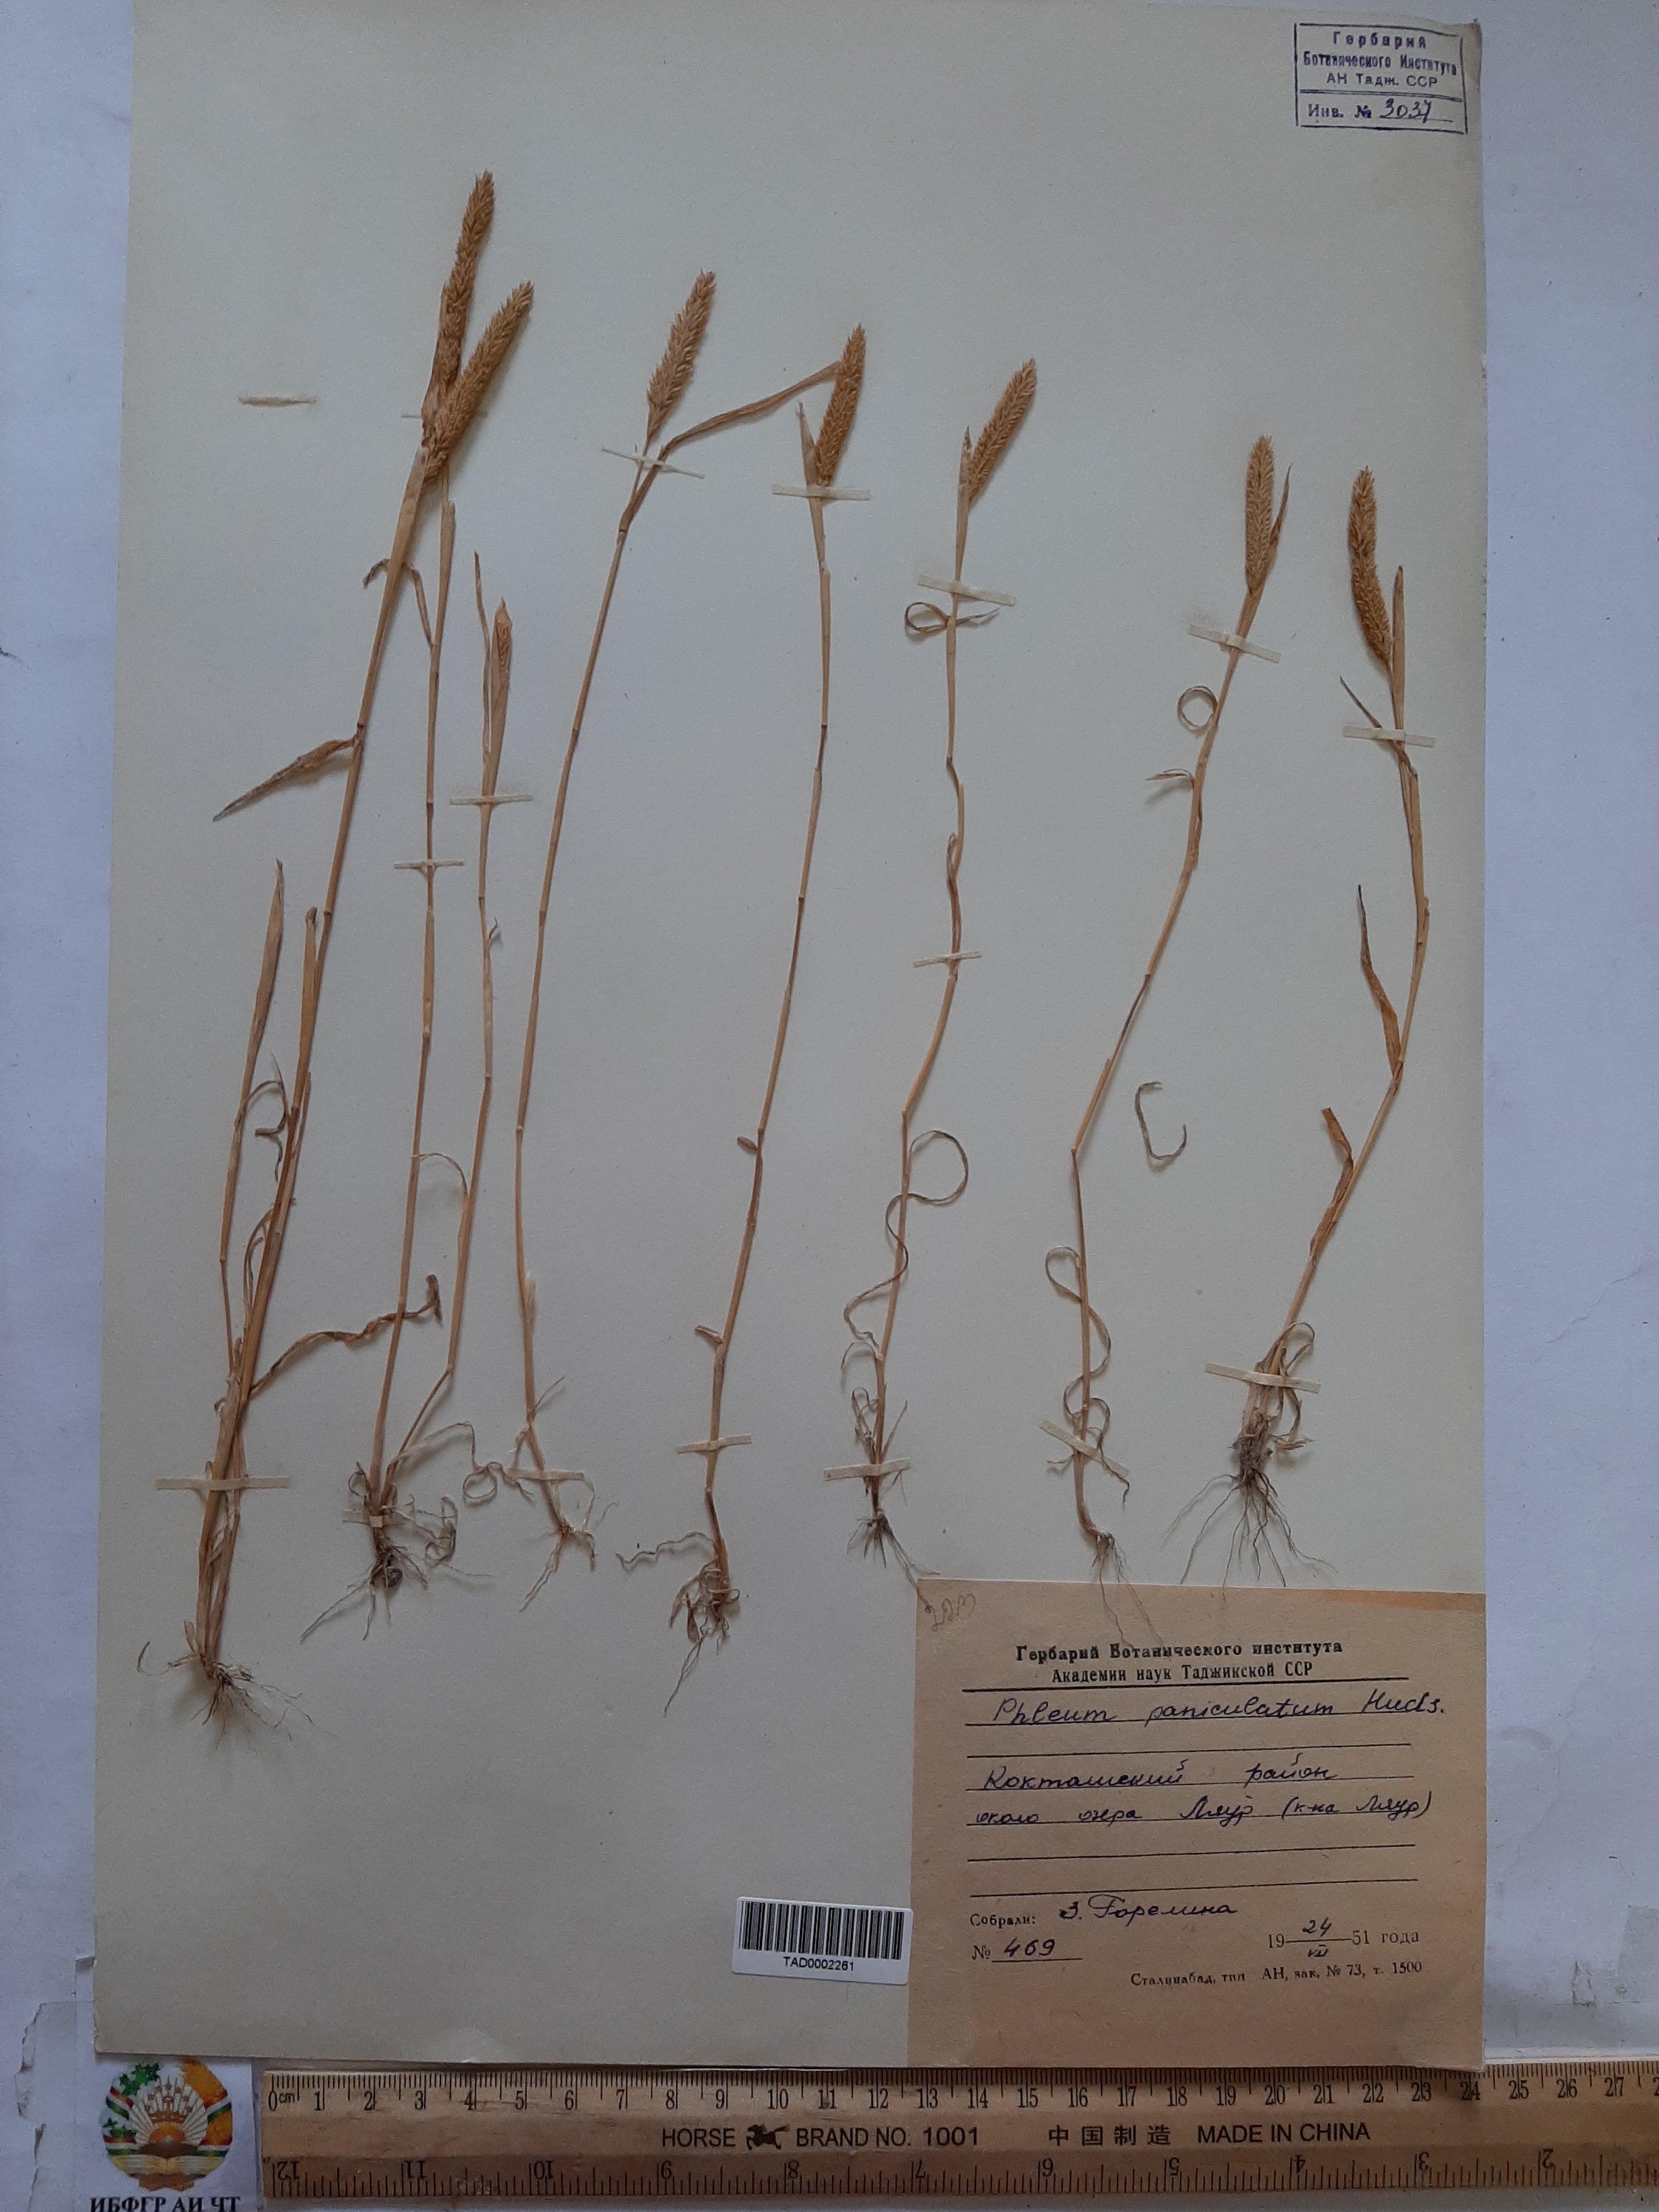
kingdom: Plantae
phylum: Tracheophyta
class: Liliopsida
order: Poales
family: Poaceae
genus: Phleum
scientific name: Phleum paniculatum
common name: British timothy
